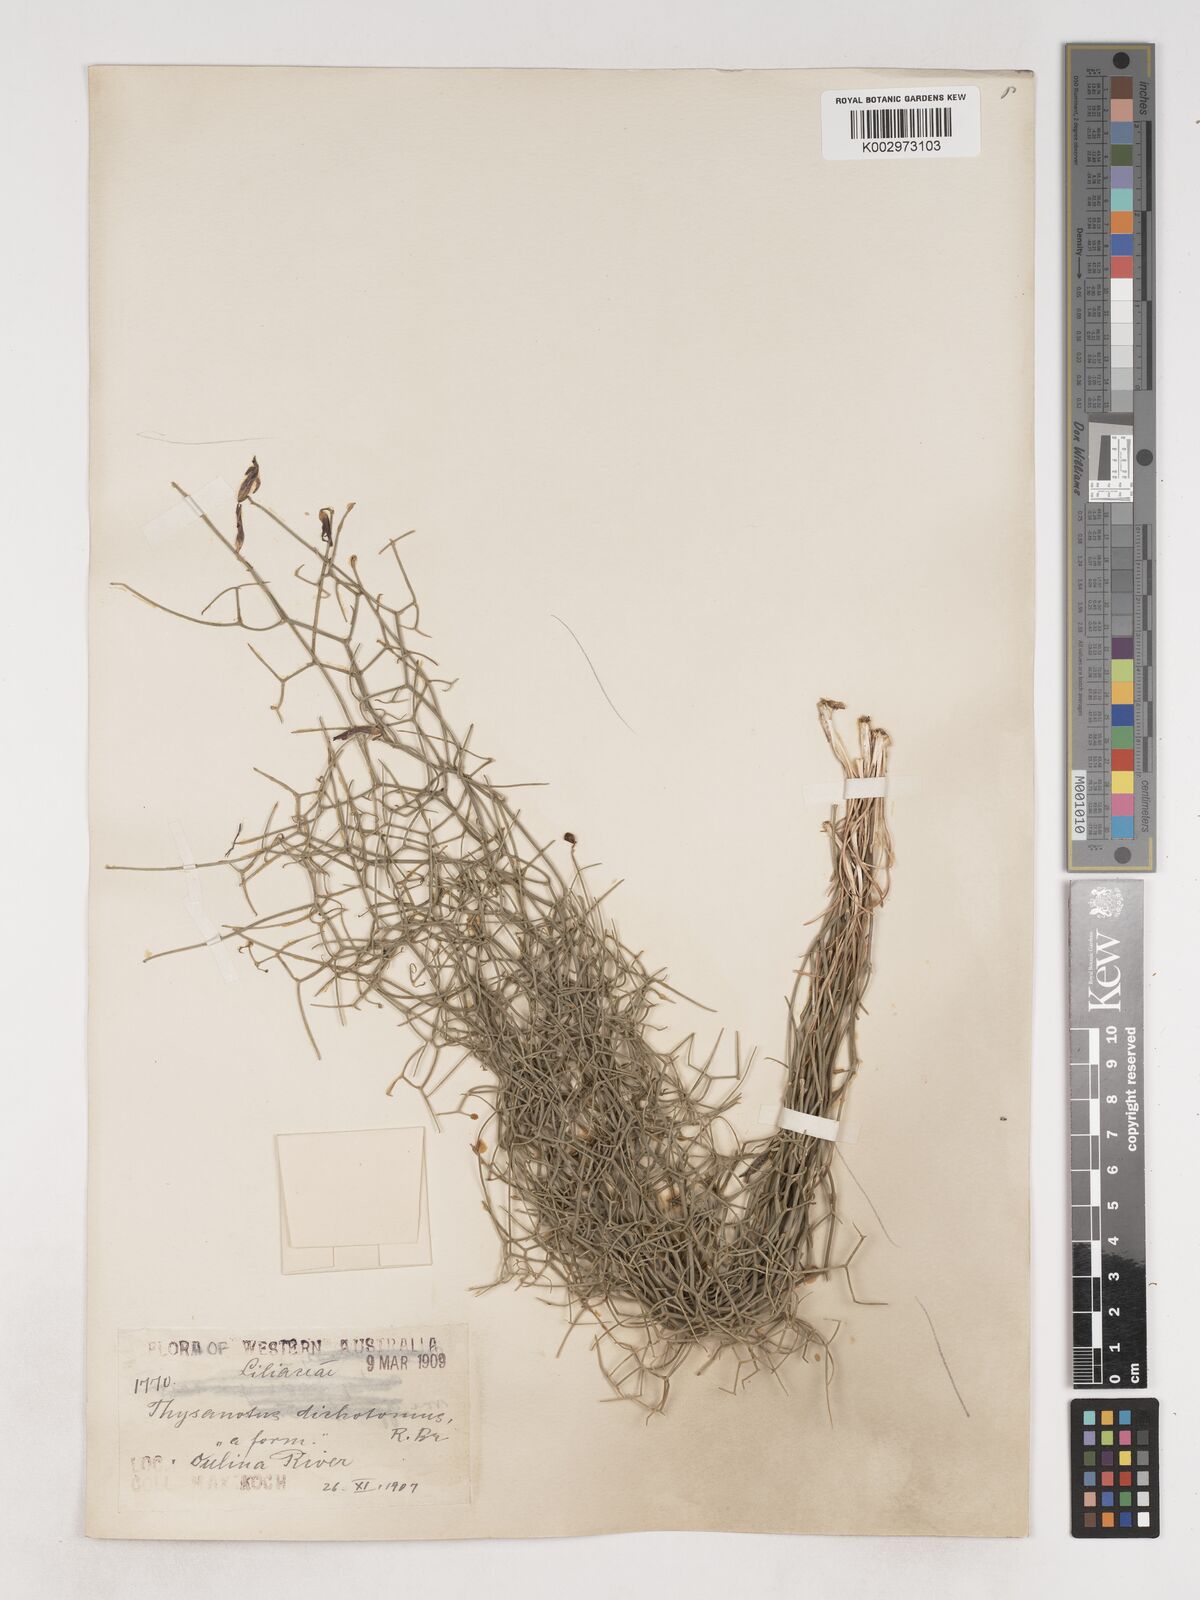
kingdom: Plantae
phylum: Tracheophyta
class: Liliopsida
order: Asparagales
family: Asparagaceae
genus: Thysanotus
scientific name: Thysanotus dichotomus
